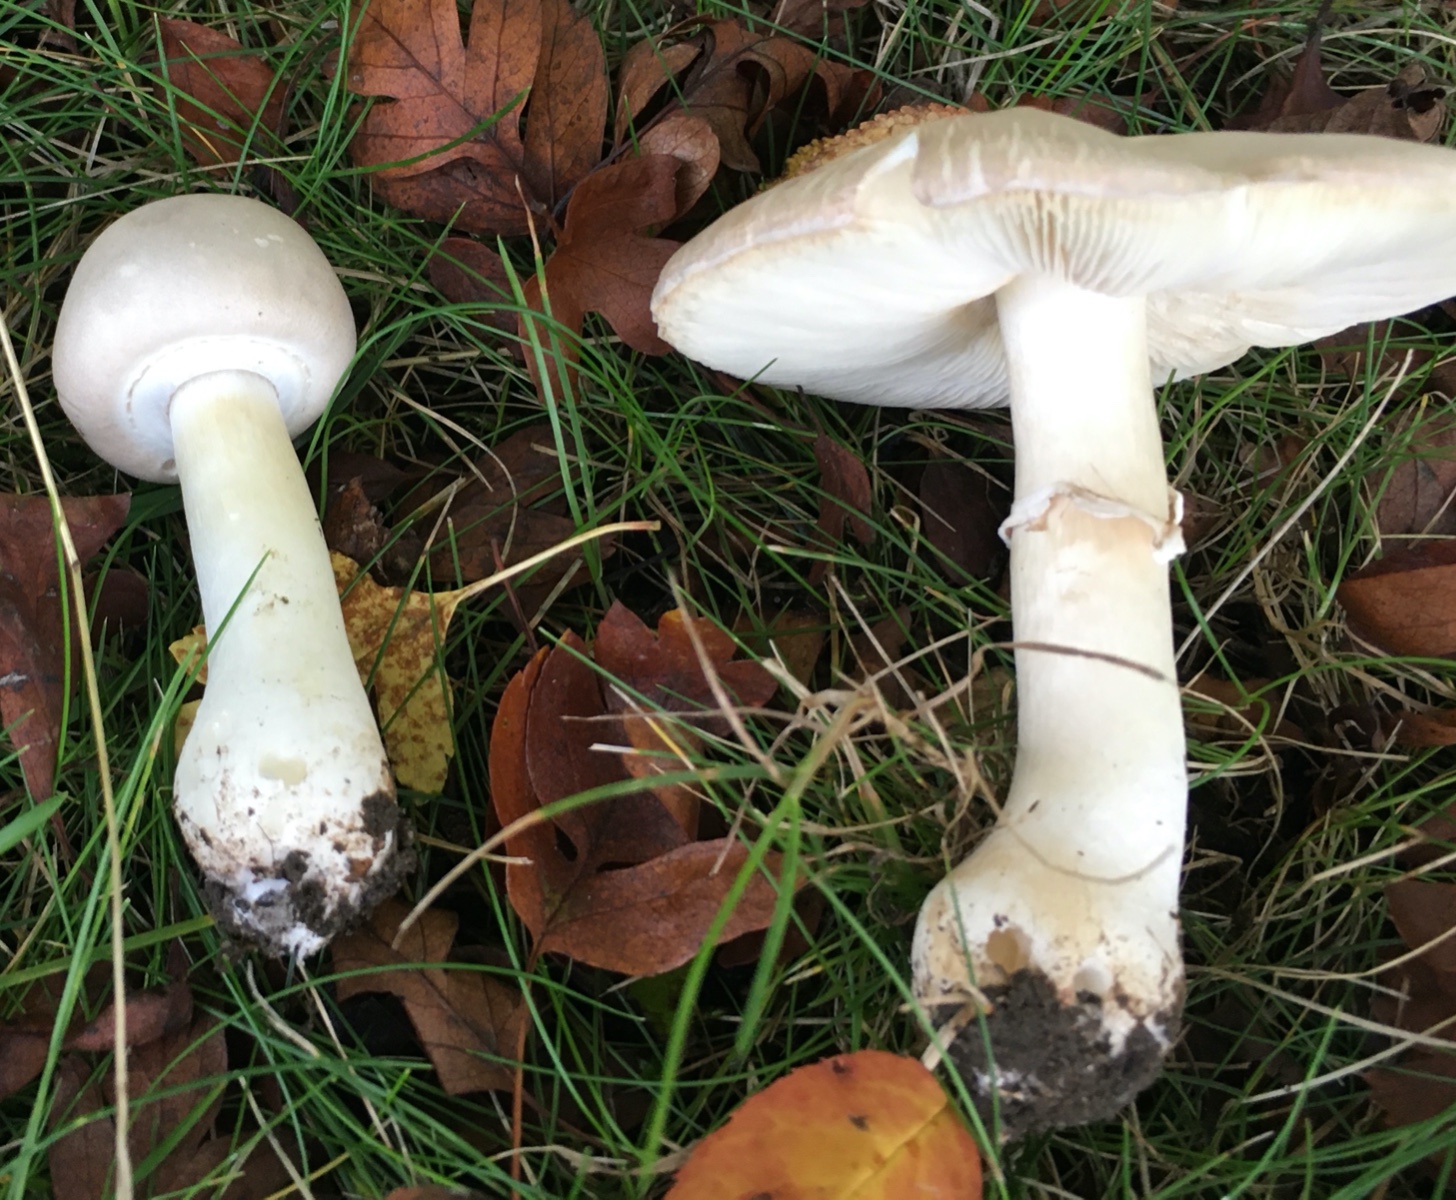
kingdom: Fungi
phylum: Basidiomycota
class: Agaricomycetes
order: Agaricales
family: Agaricaceae
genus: Leucoagaricus
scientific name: Leucoagaricus leucothites
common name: rosabladet silkehat
